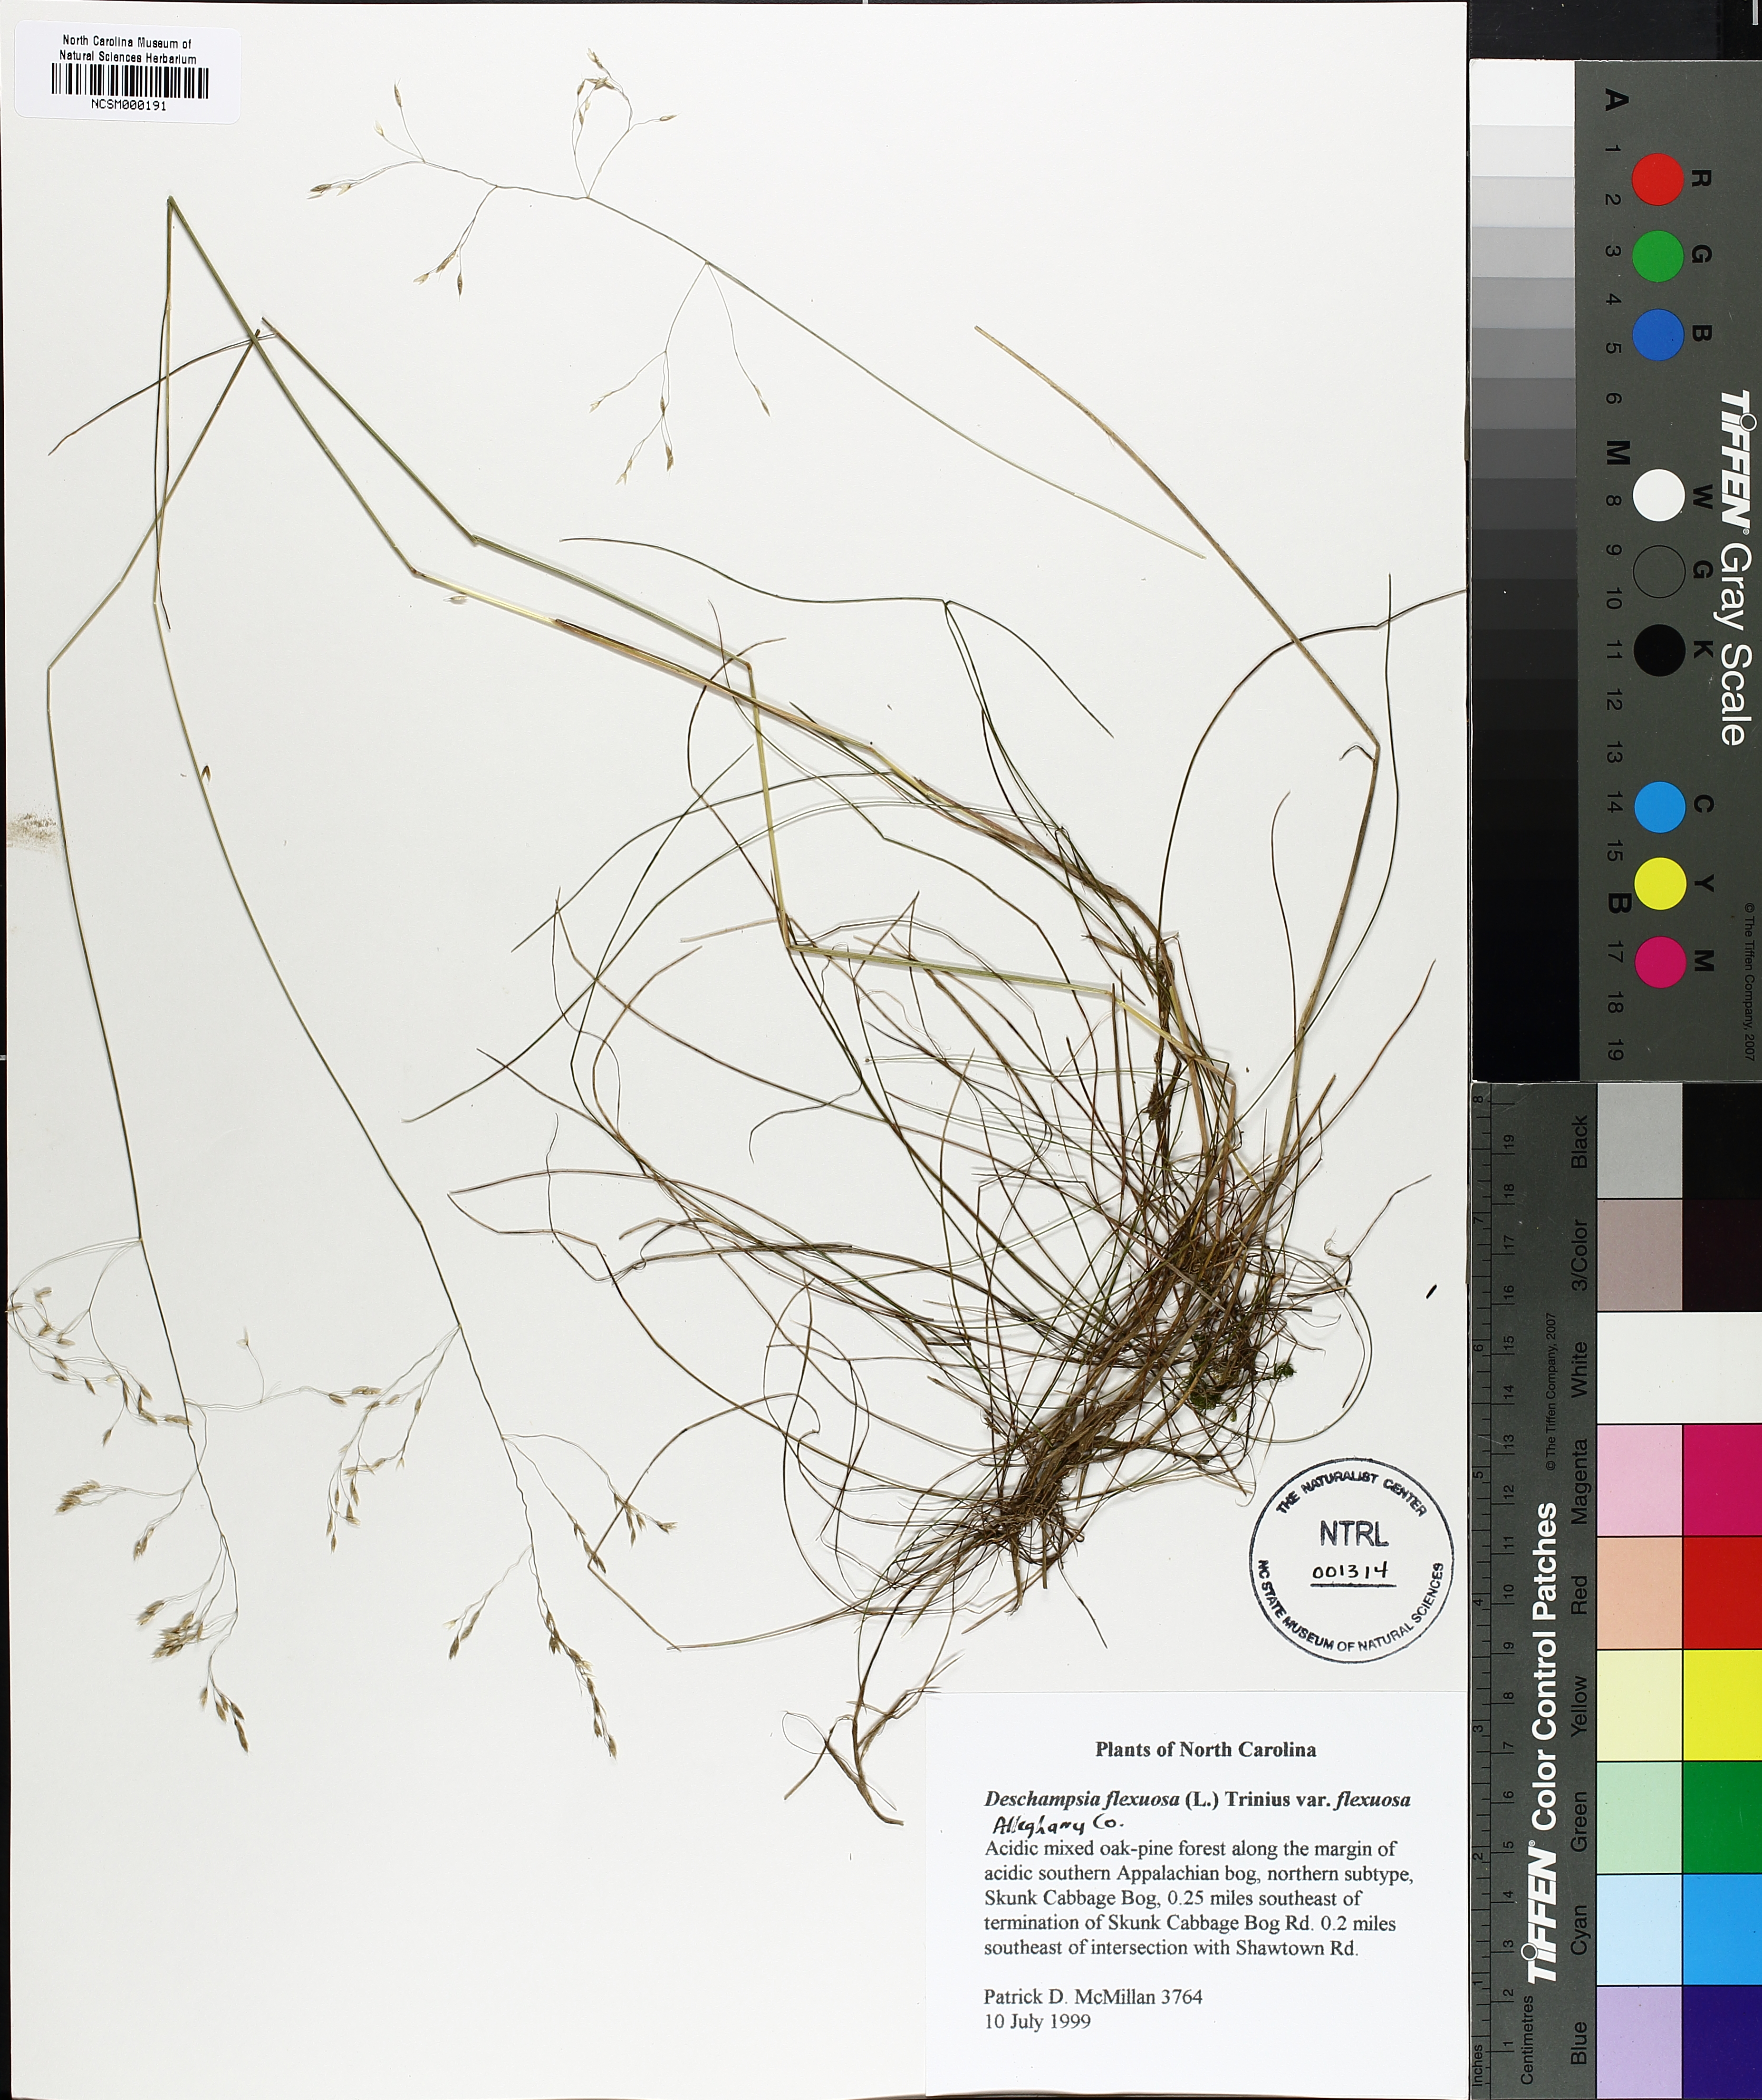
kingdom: Plantae
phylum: Tracheophyta
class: Liliopsida
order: Poales
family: Poaceae
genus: Avenella
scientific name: Avenella flexuosa
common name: Wavy hairgrass
